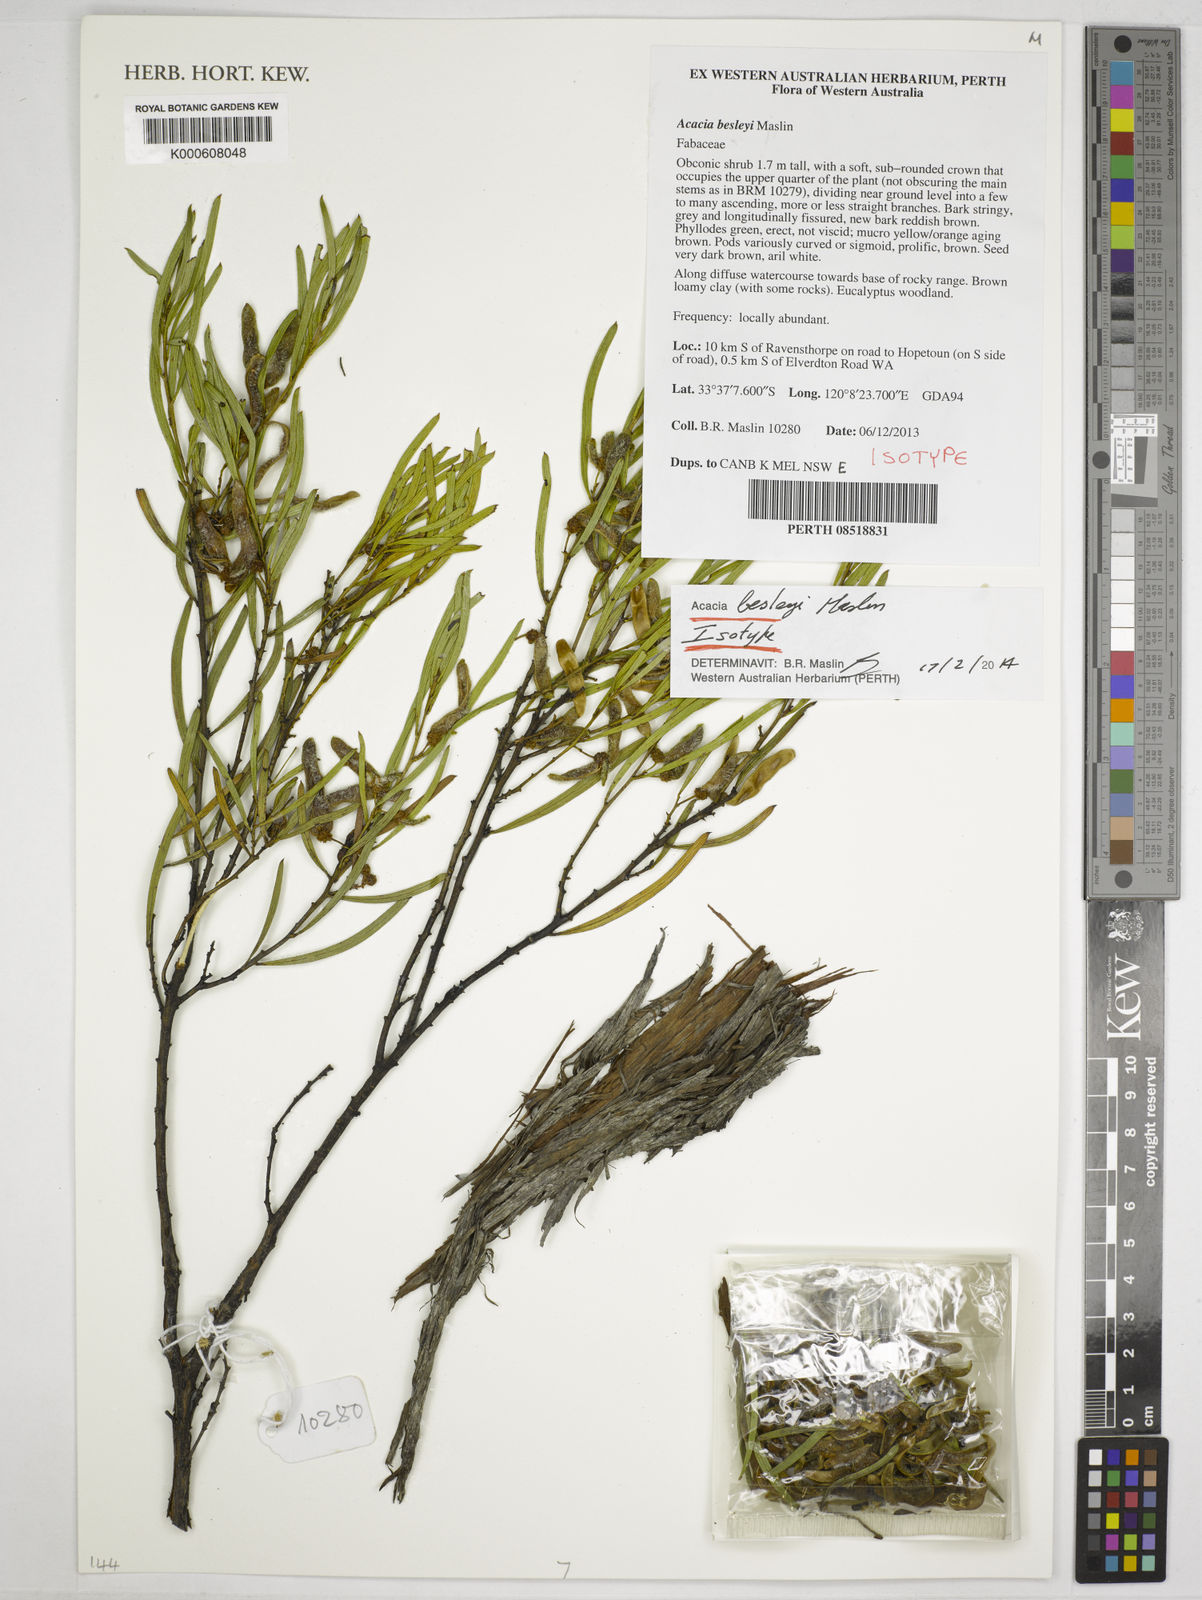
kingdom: Plantae
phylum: Tracheophyta
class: Magnoliopsida
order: Fabales
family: Fabaceae
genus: Acacia
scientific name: Acacia besleyi
